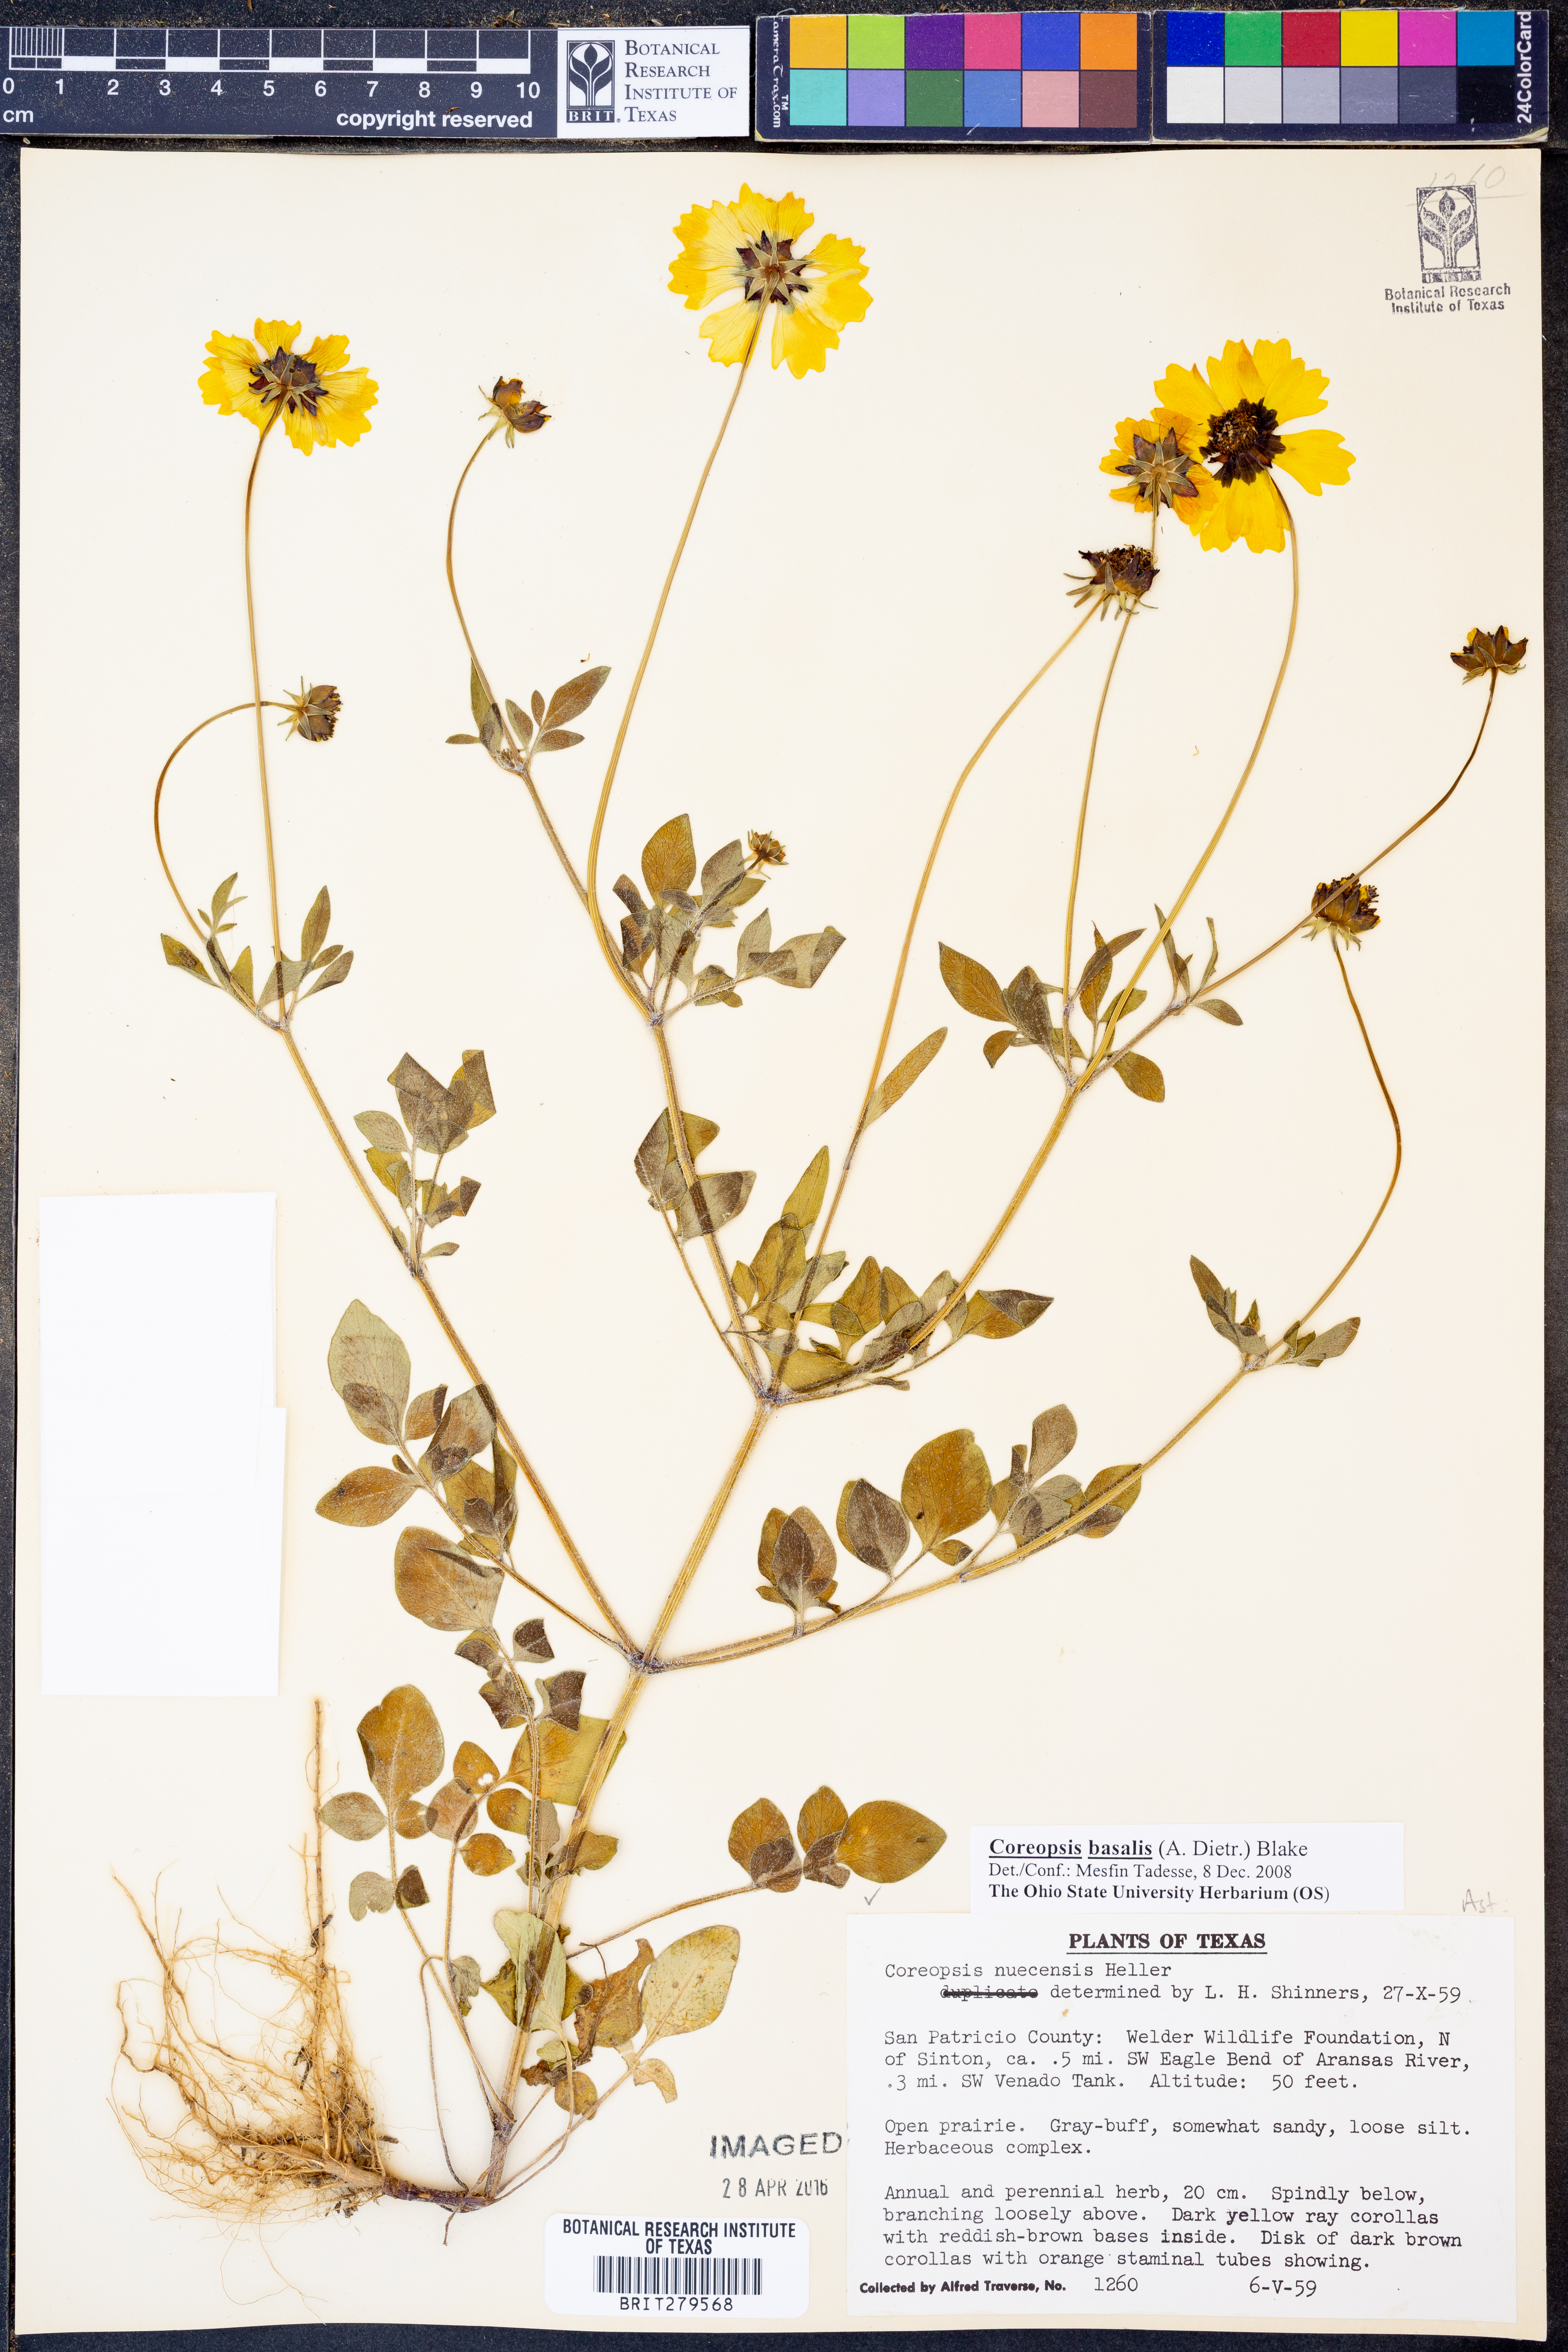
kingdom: Plantae
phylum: Tracheophyta
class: Magnoliopsida
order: Asterales
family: Asteraceae
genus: Coreopsis
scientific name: Coreopsis basalis
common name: Golden-mane coreopsis
